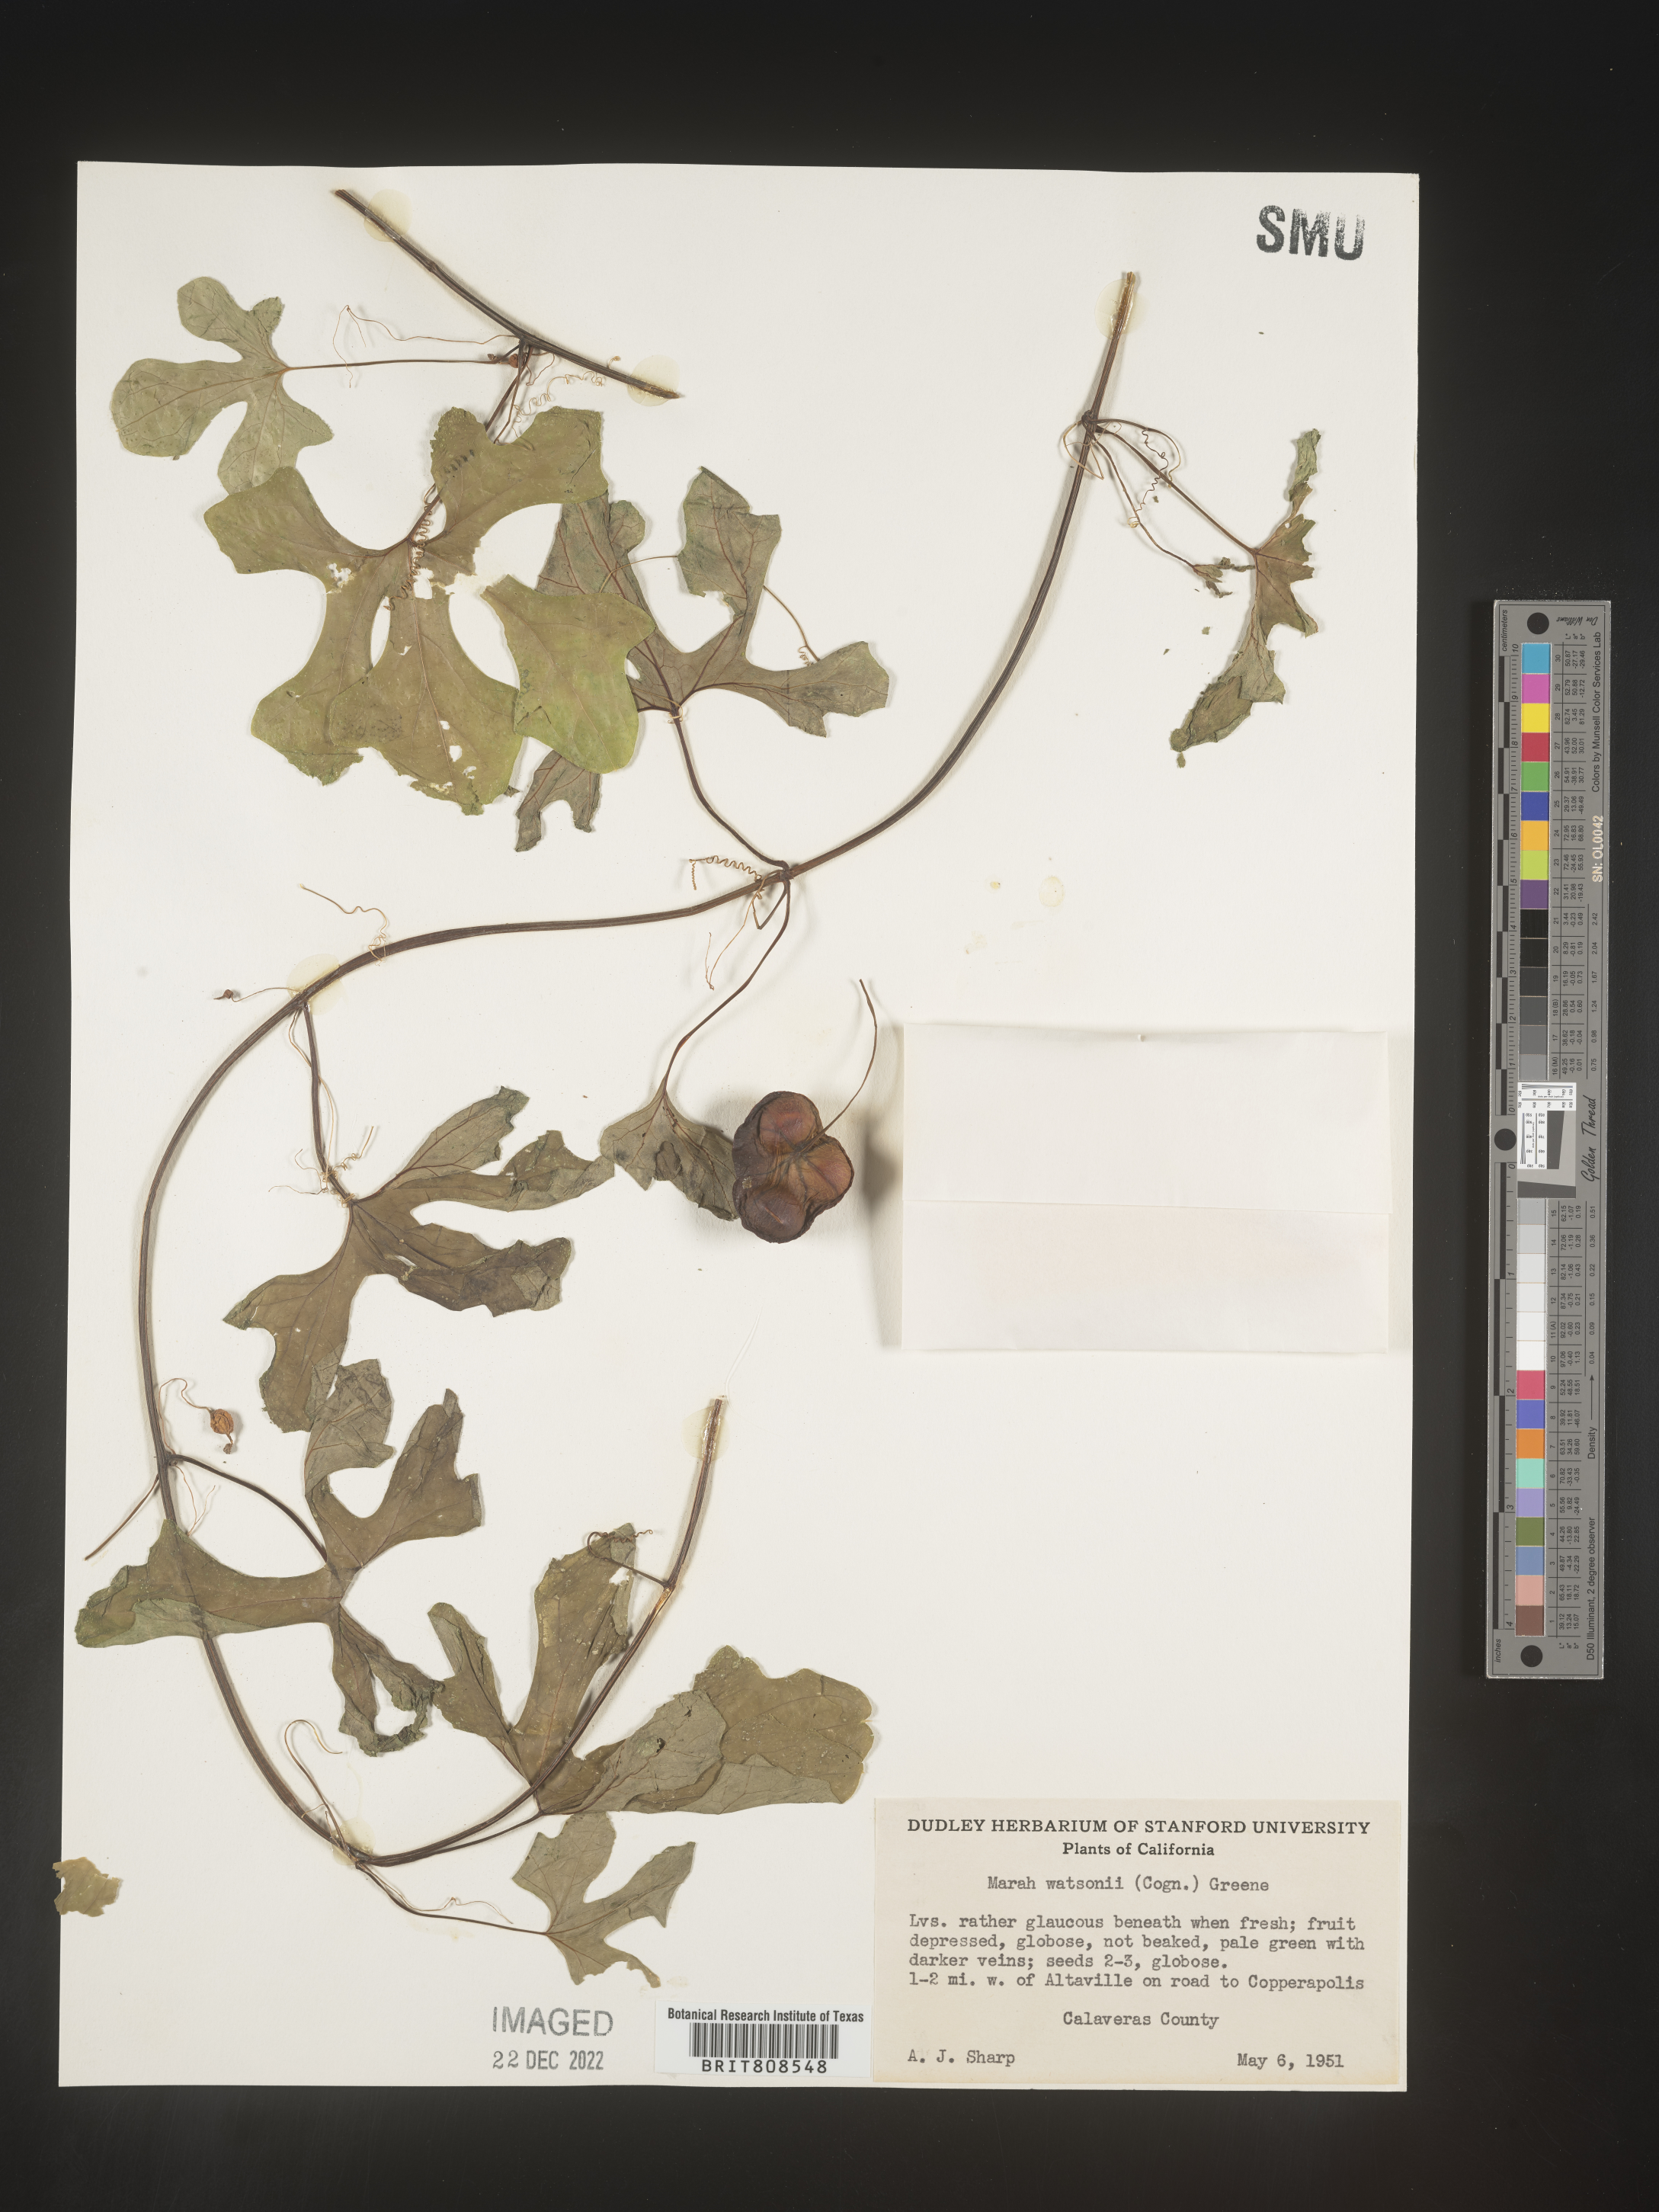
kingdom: Plantae
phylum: Tracheophyta
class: Magnoliopsida
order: Cucurbitales
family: Cucurbitaceae
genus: Marah
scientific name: Marah
